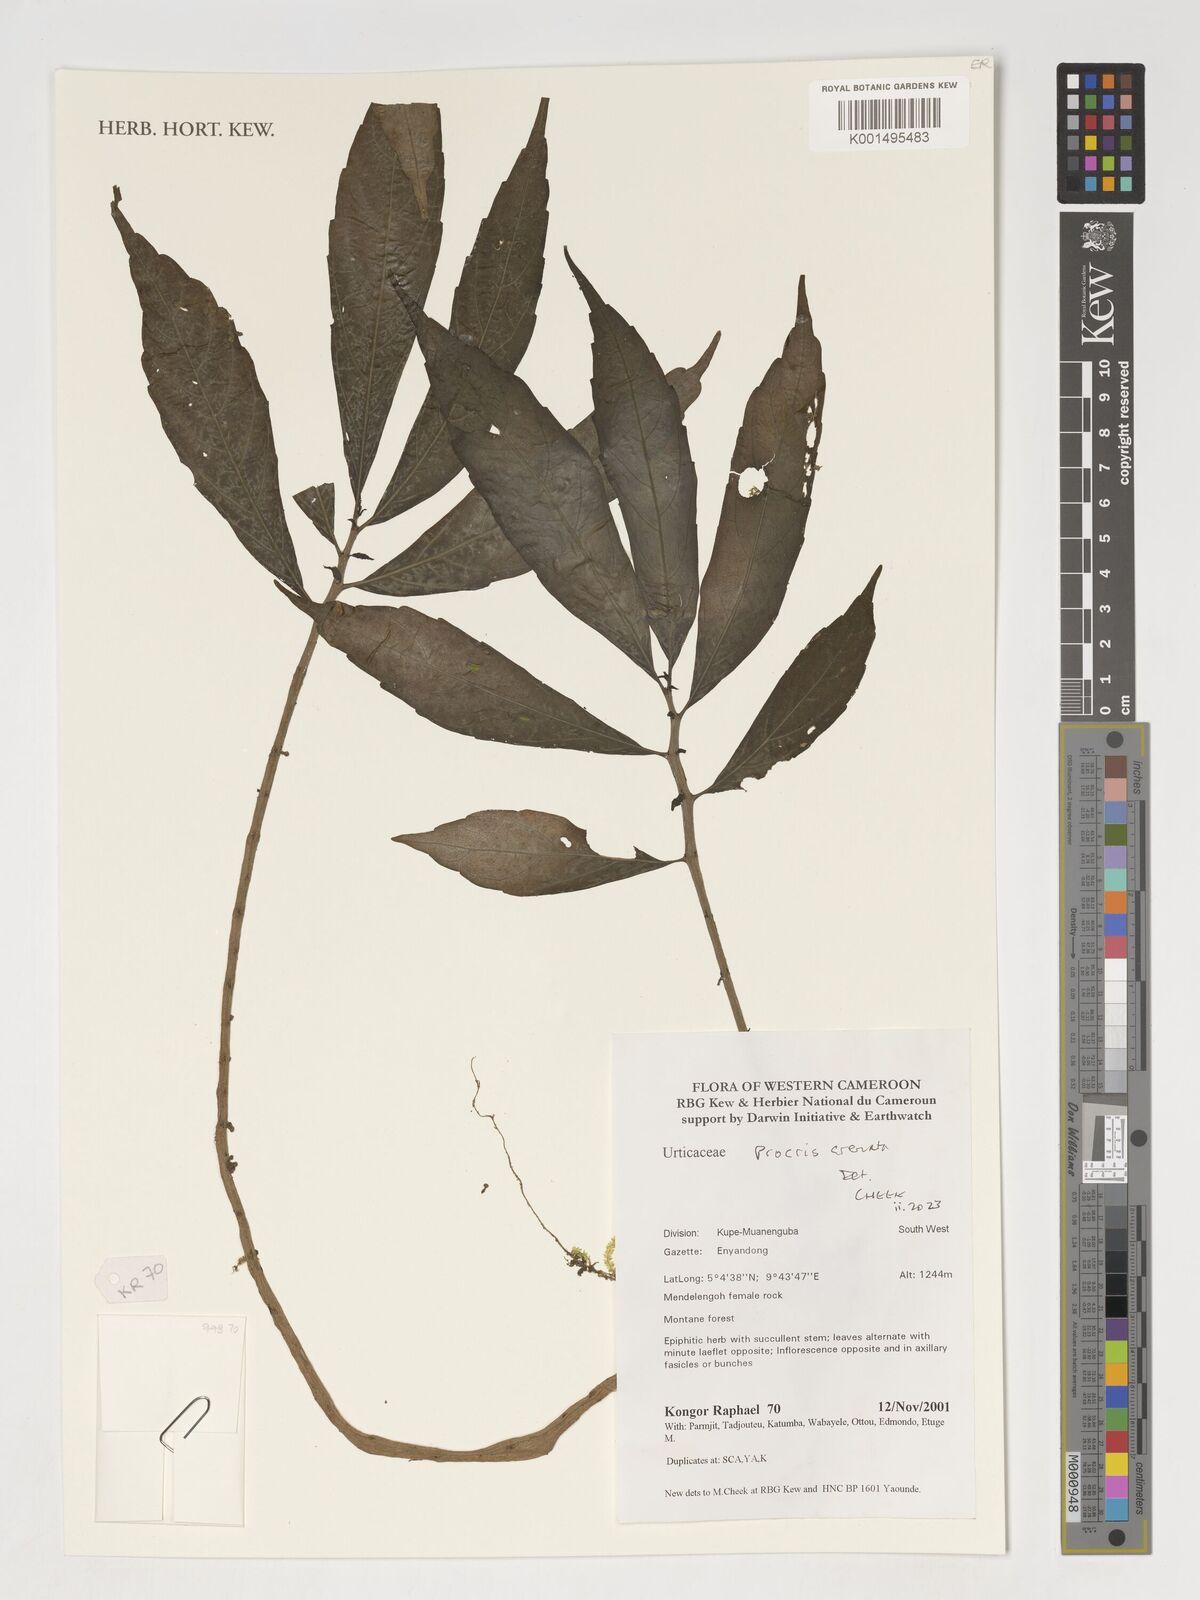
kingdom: Plantae
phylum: Tracheophyta
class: Magnoliopsida
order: Rosales
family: Urticaceae
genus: Procris
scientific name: Procris crenata
